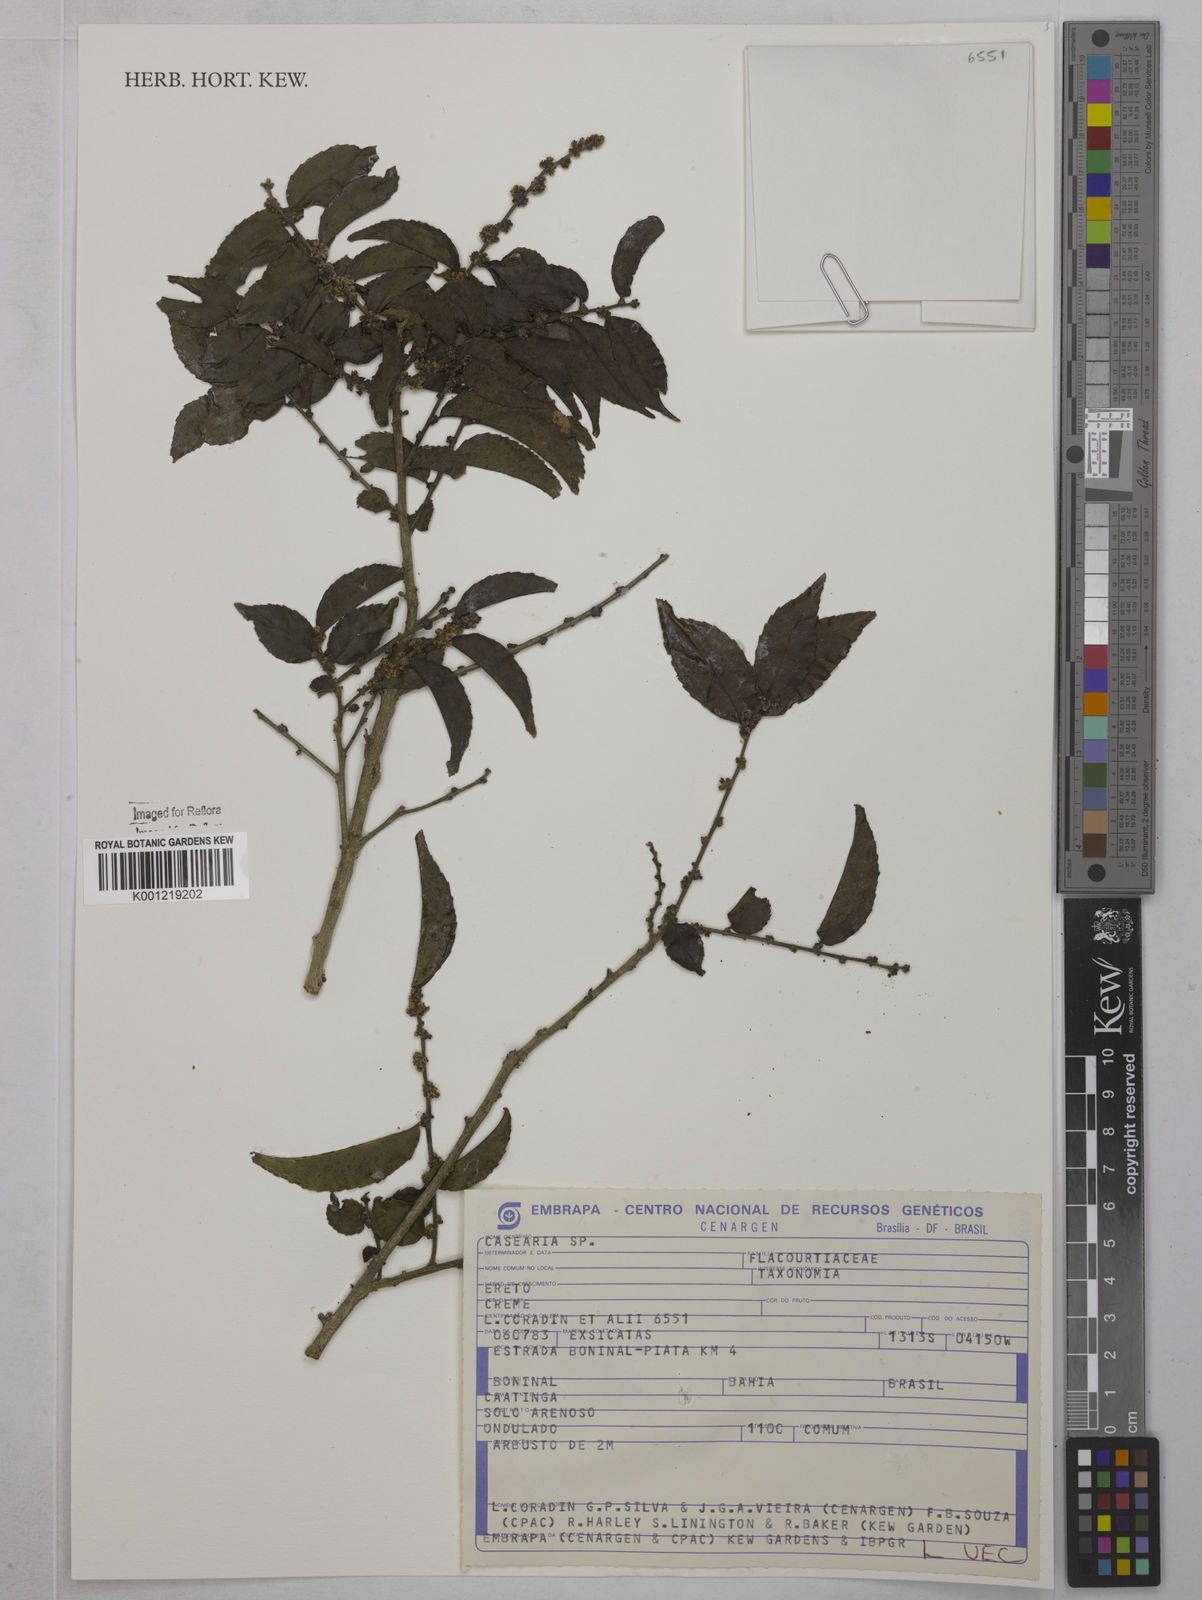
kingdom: Plantae
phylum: Tracheophyta
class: Magnoliopsida
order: Malpighiales
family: Salicaceae
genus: Casearia
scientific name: Casearia
